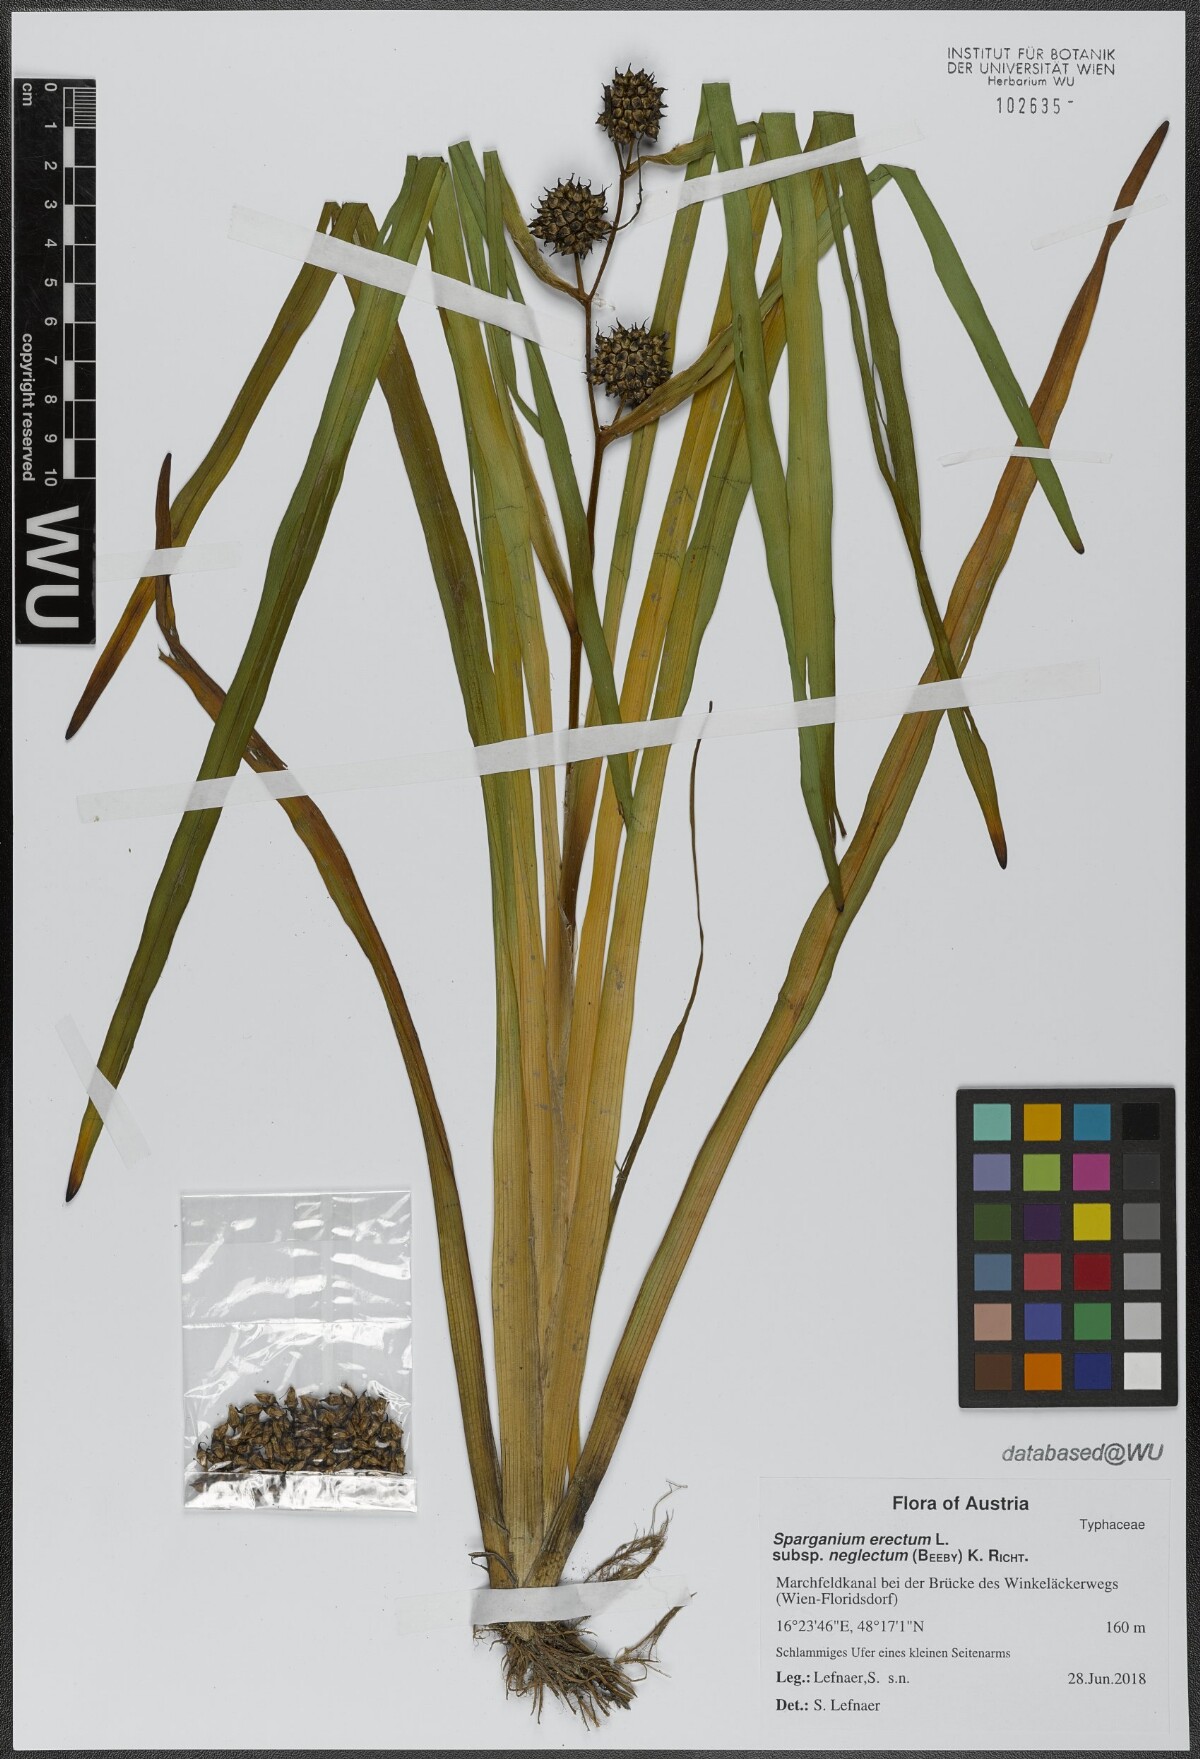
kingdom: Plantae
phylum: Tracheophyta
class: Liliopsida
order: Poales
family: Typhaceae
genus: Sparganium
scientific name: Sparganium erectum
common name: Branched bur-reed
